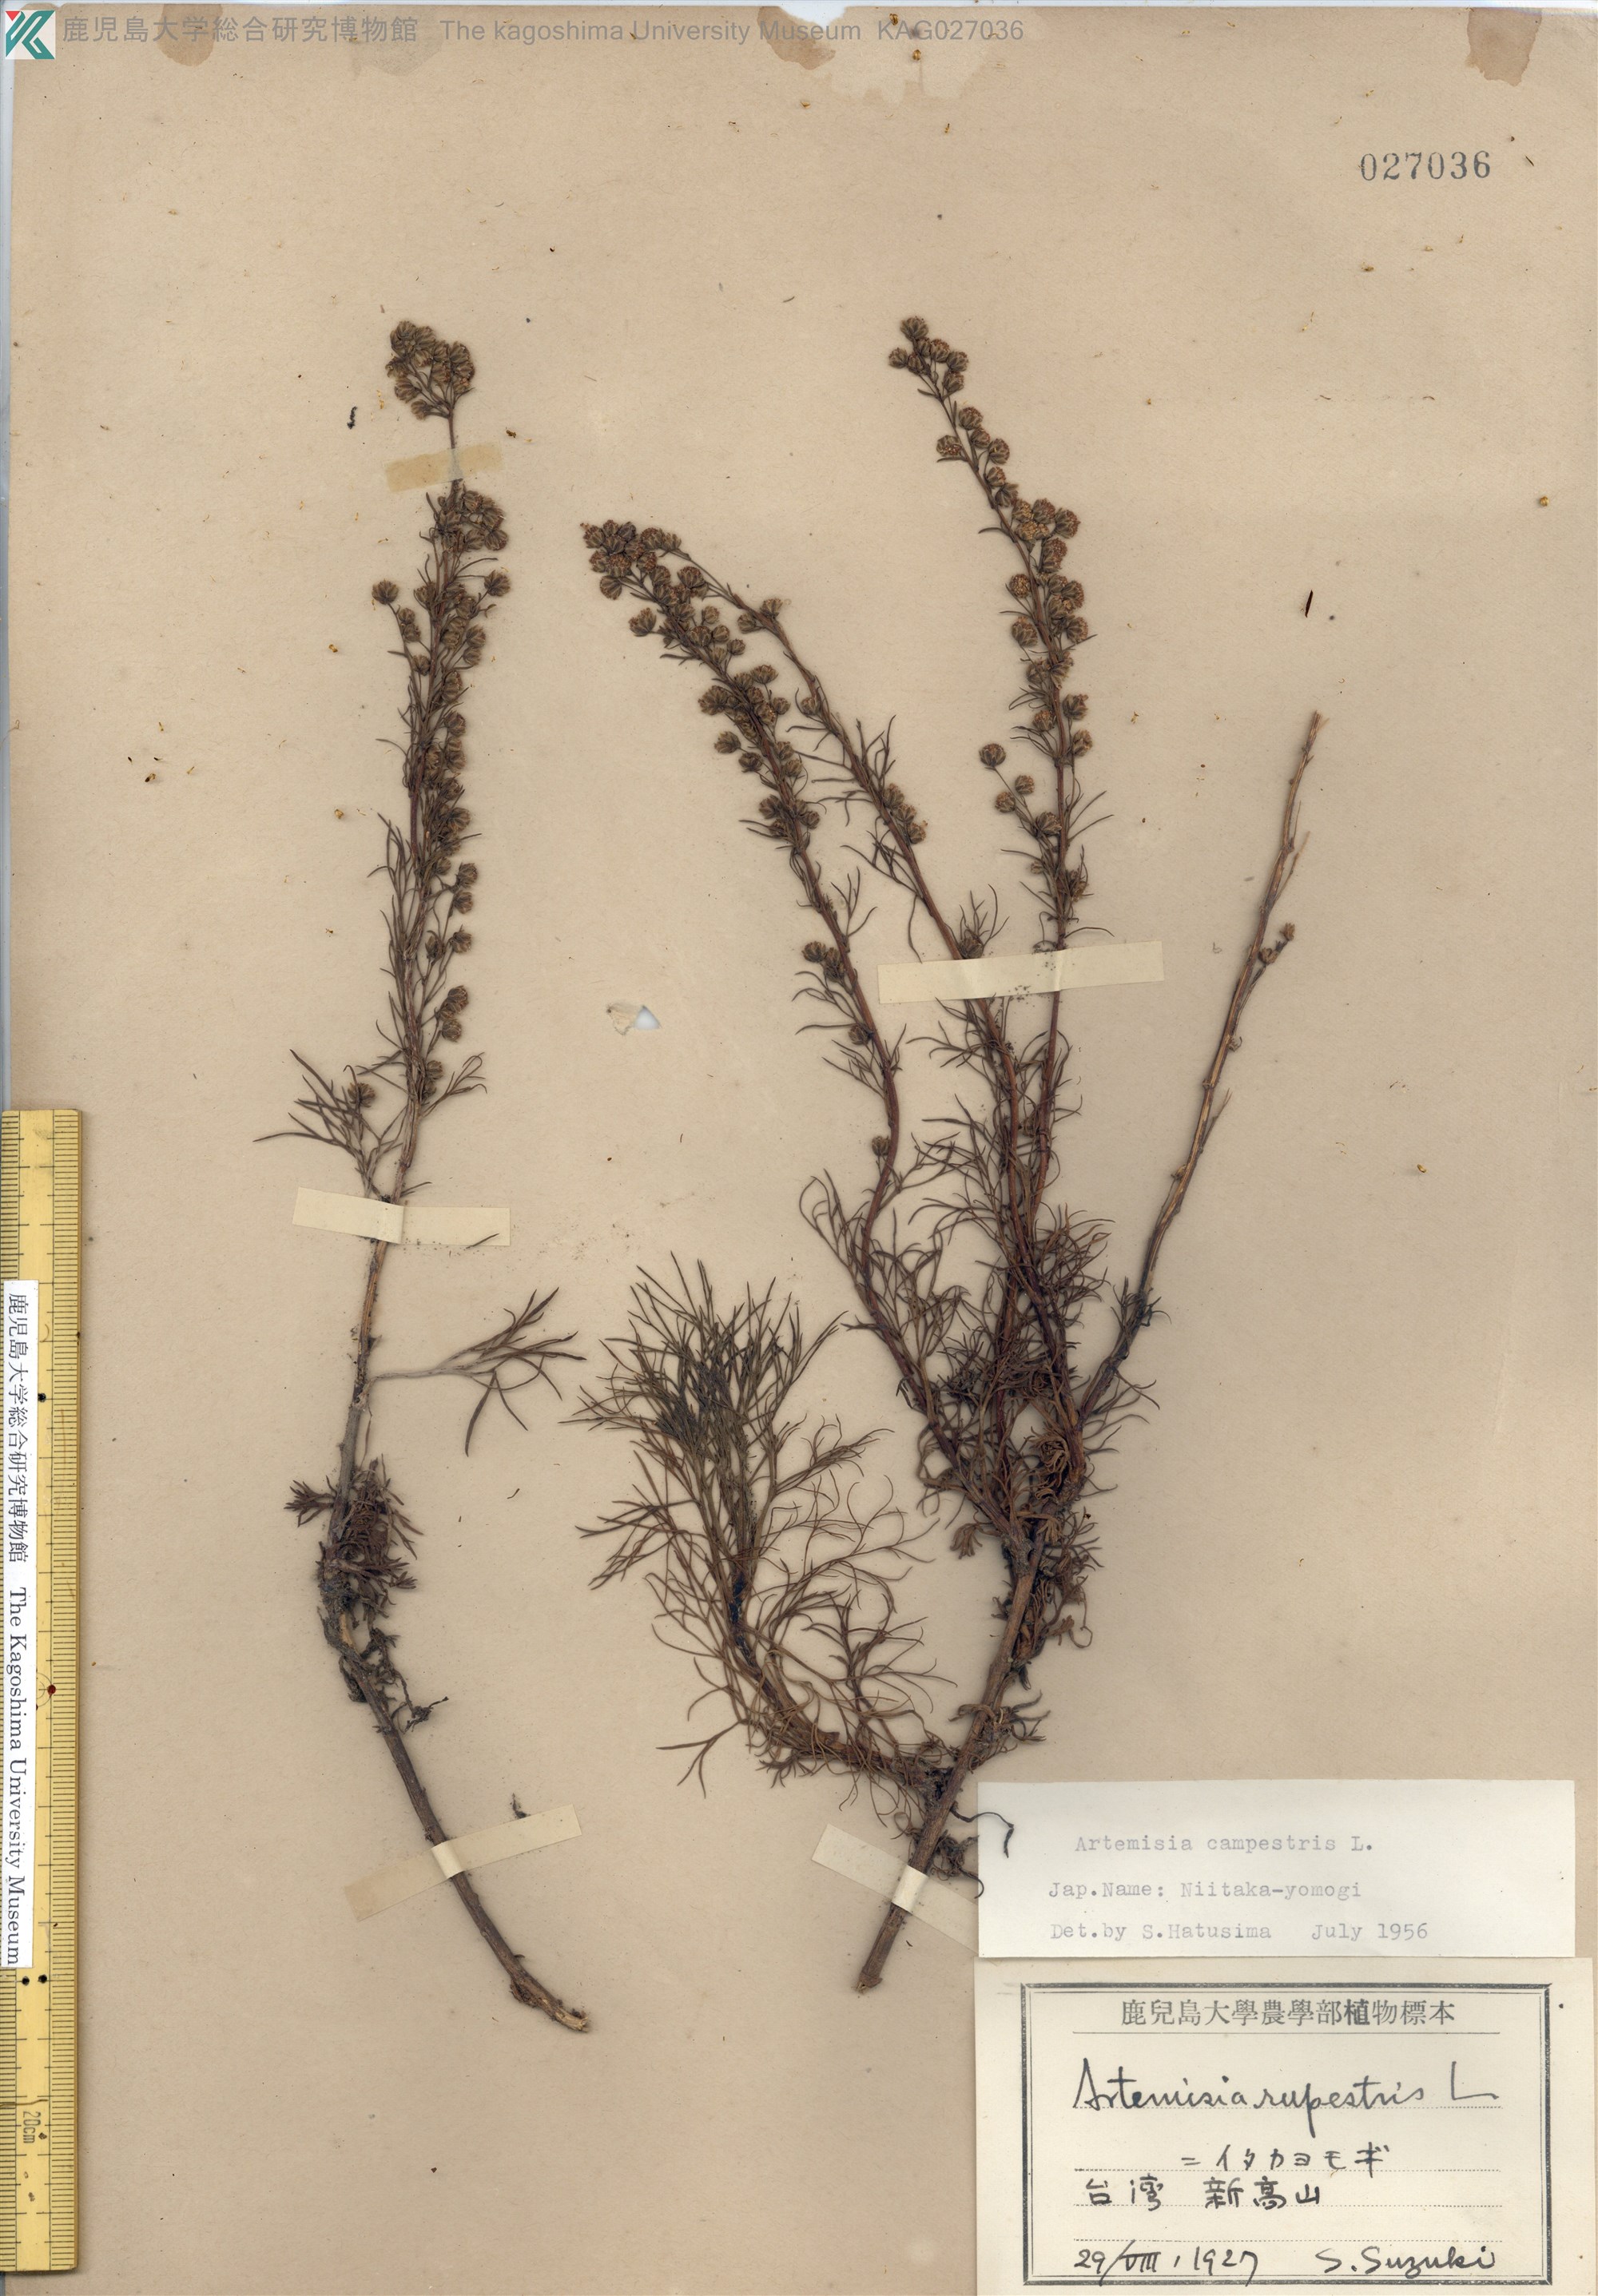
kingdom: Plantae
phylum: Tracheophyta
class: Magnoliopsida
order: Asterales
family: Asteraceae
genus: Artemisia
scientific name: Artemisia morrisonensis
